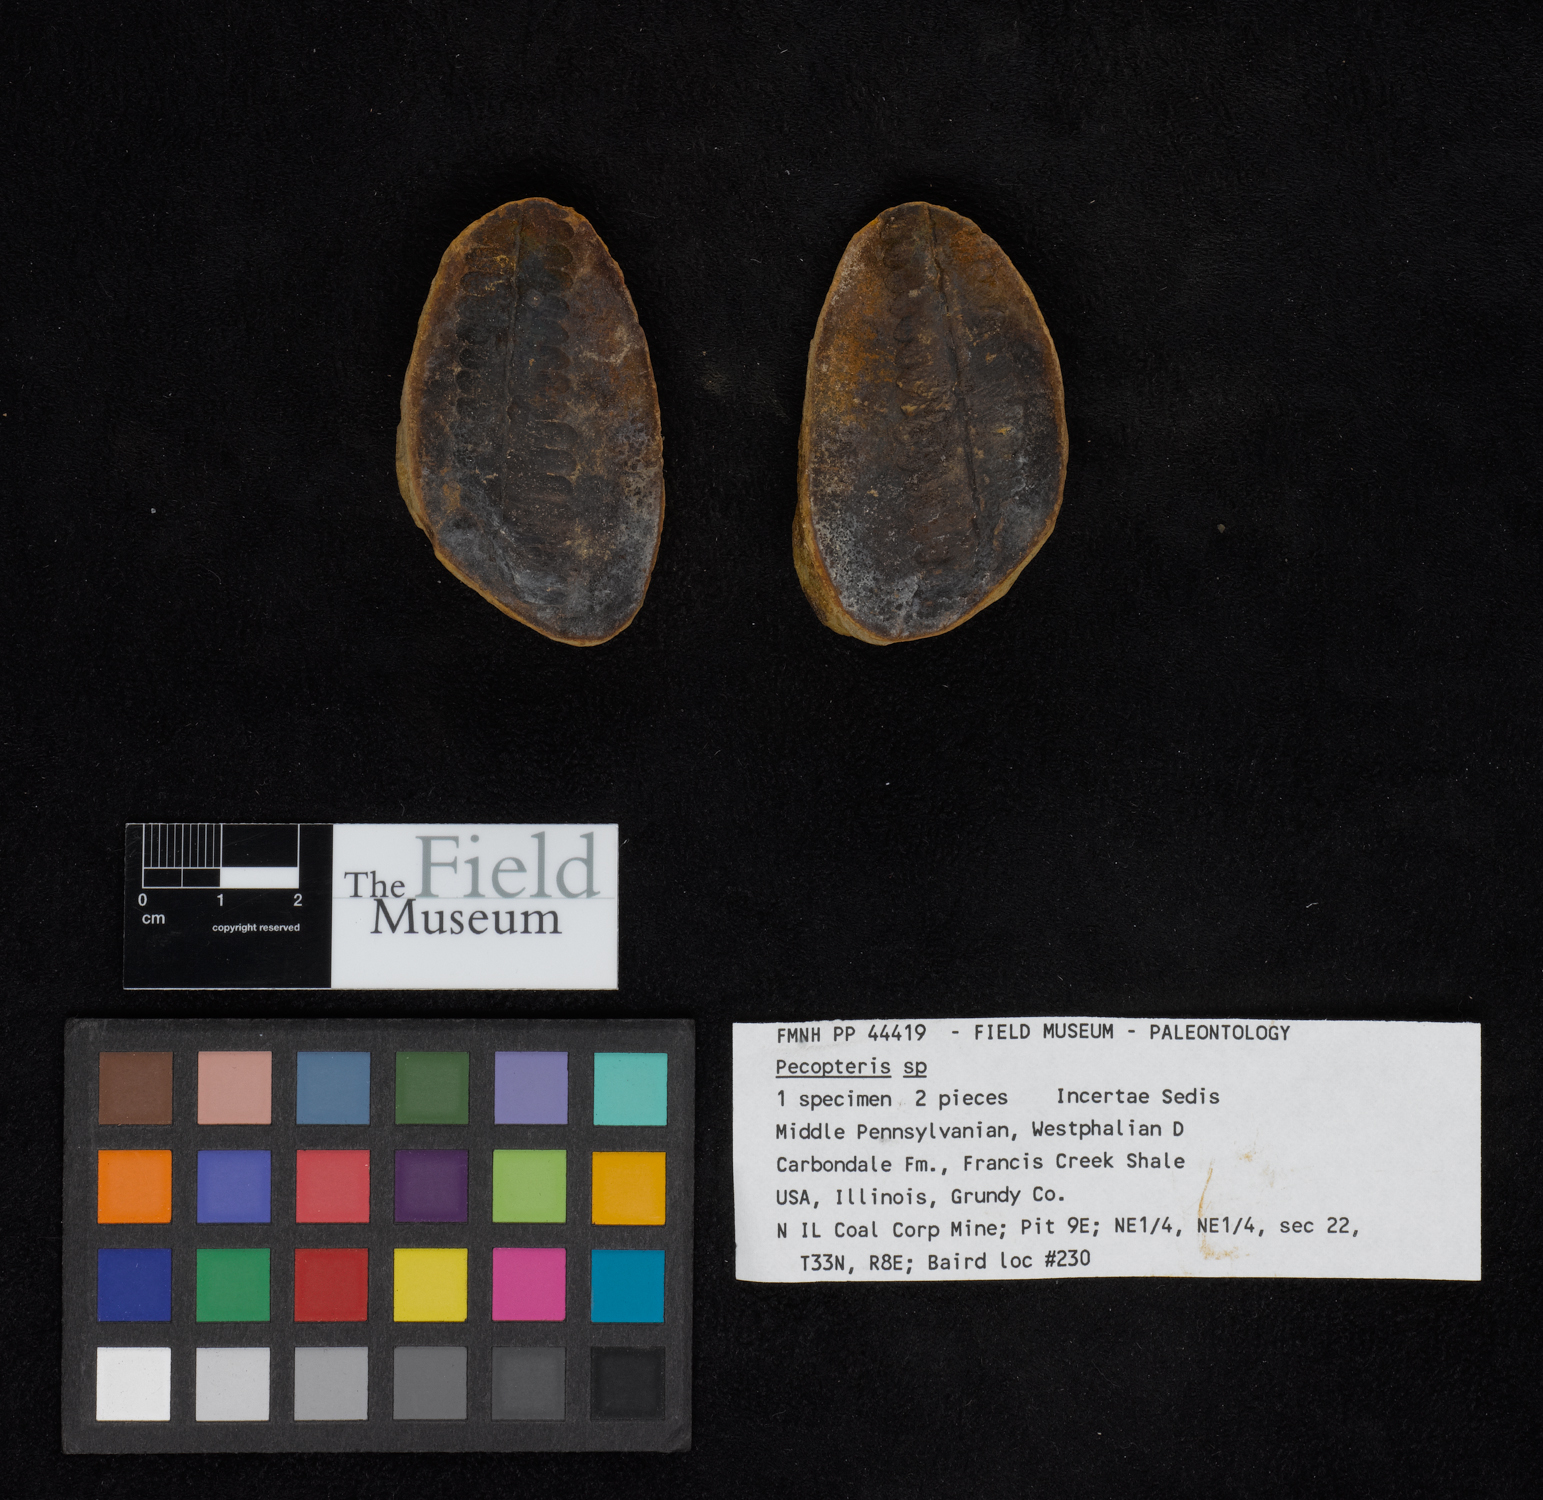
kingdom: Plantae
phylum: Tracheophyta
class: Polypodiopsida
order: Marattiales
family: Asterothecaceae
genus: Pecopteris
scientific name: Pecopteris
